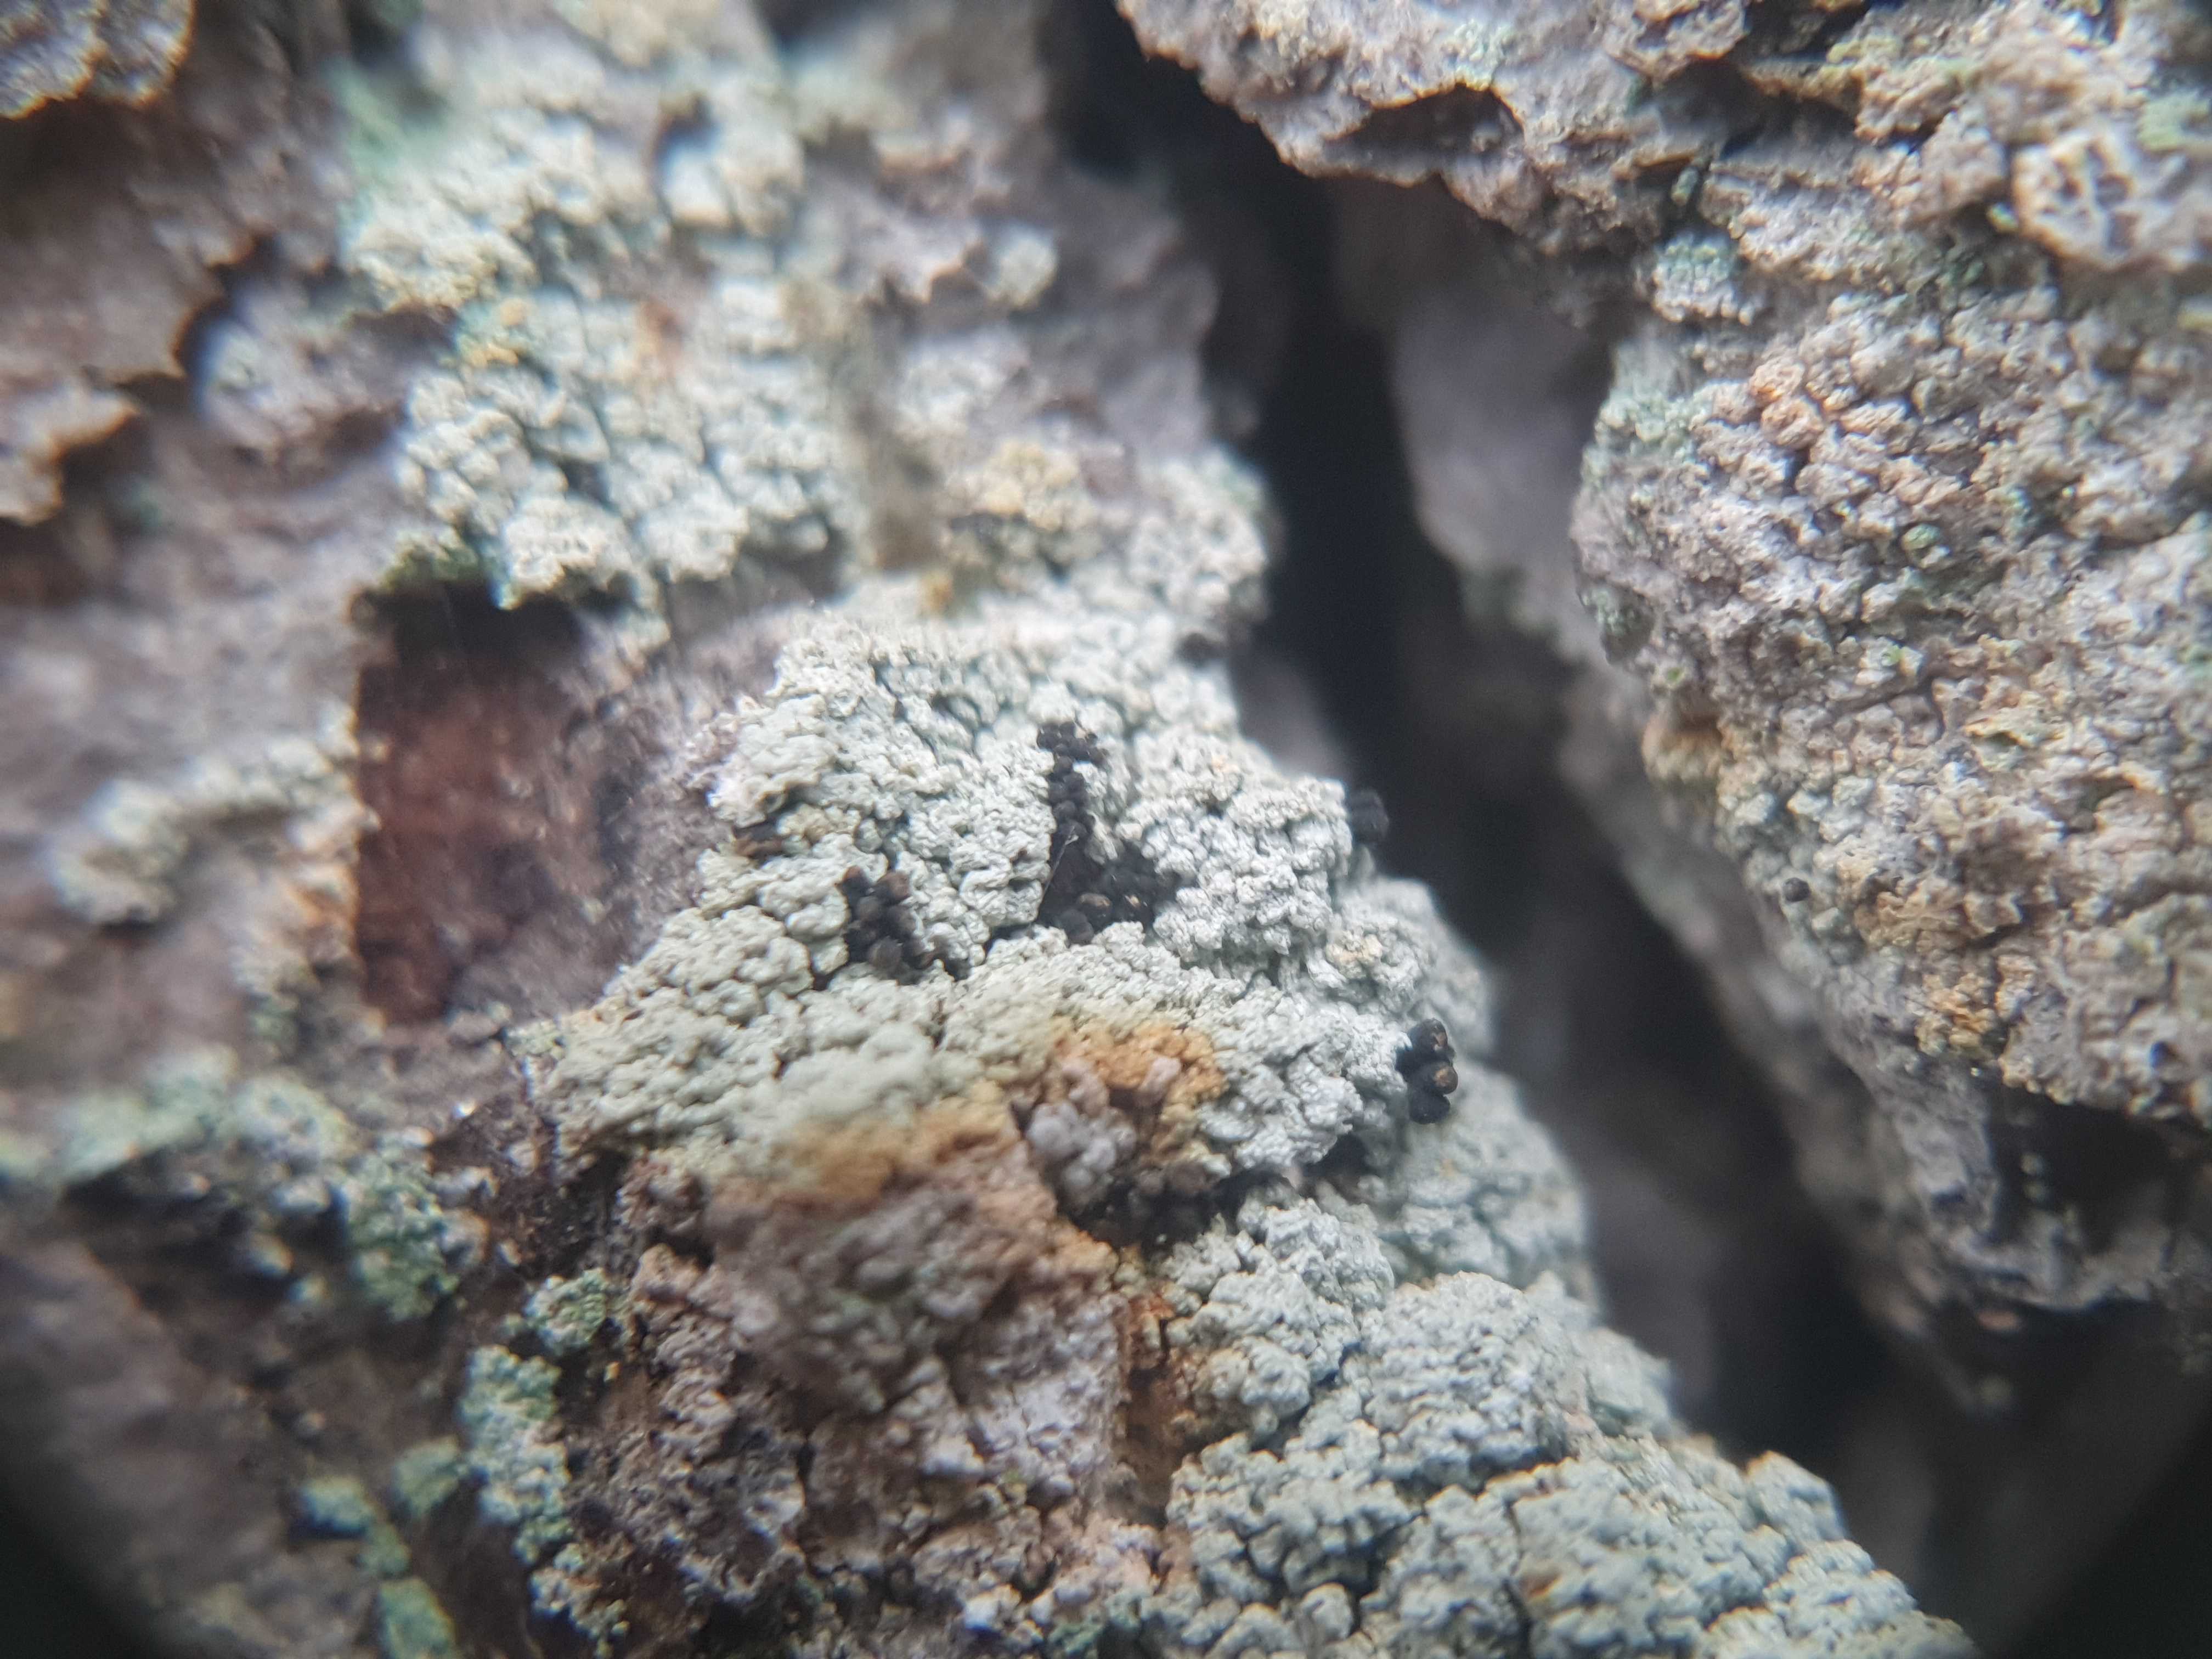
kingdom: Fungi
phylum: Ascomycota
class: Coniocybomycetes
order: Coniocybales
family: Coniocybaceae
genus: Chaenotheca
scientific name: Chaenotheca ferruginea
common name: rustbrun knappenålslav
